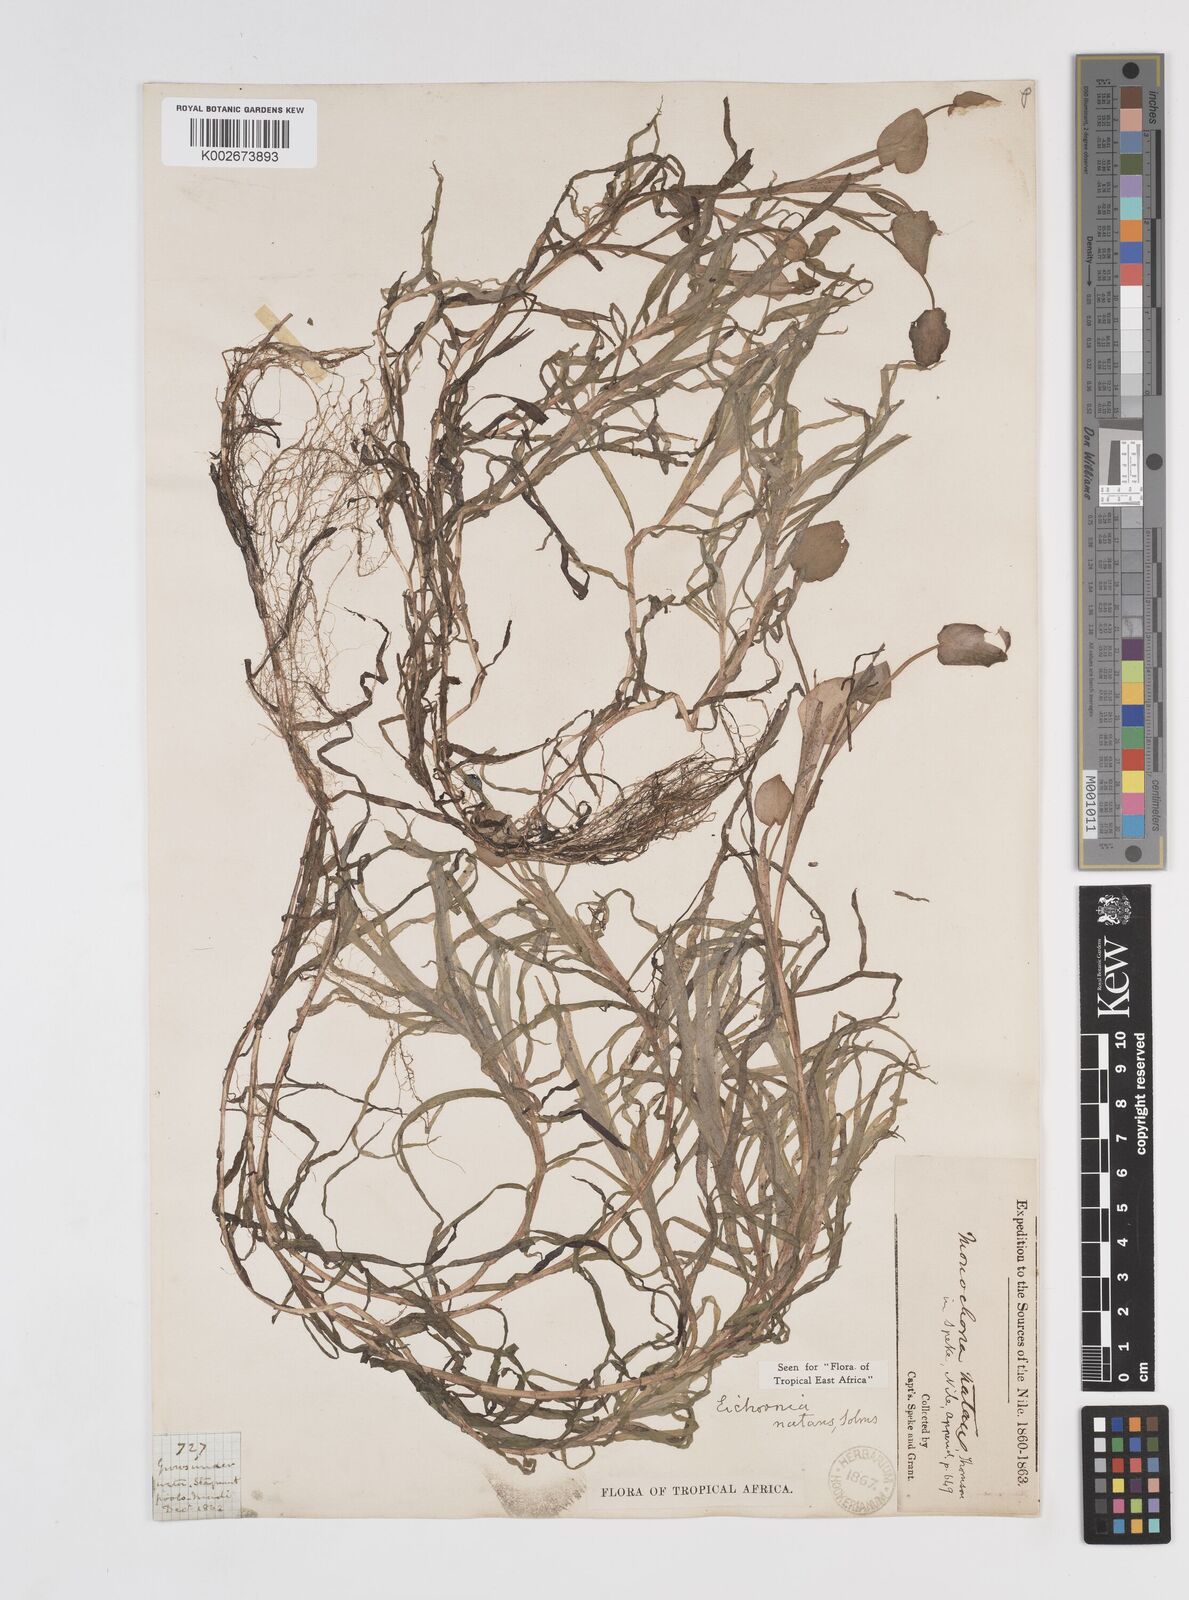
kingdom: Plantae
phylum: Tracheophyta
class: Liliopsida
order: Commelinales
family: Pontederiaceae
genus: Pontederia
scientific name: Pontederia diversifolia
